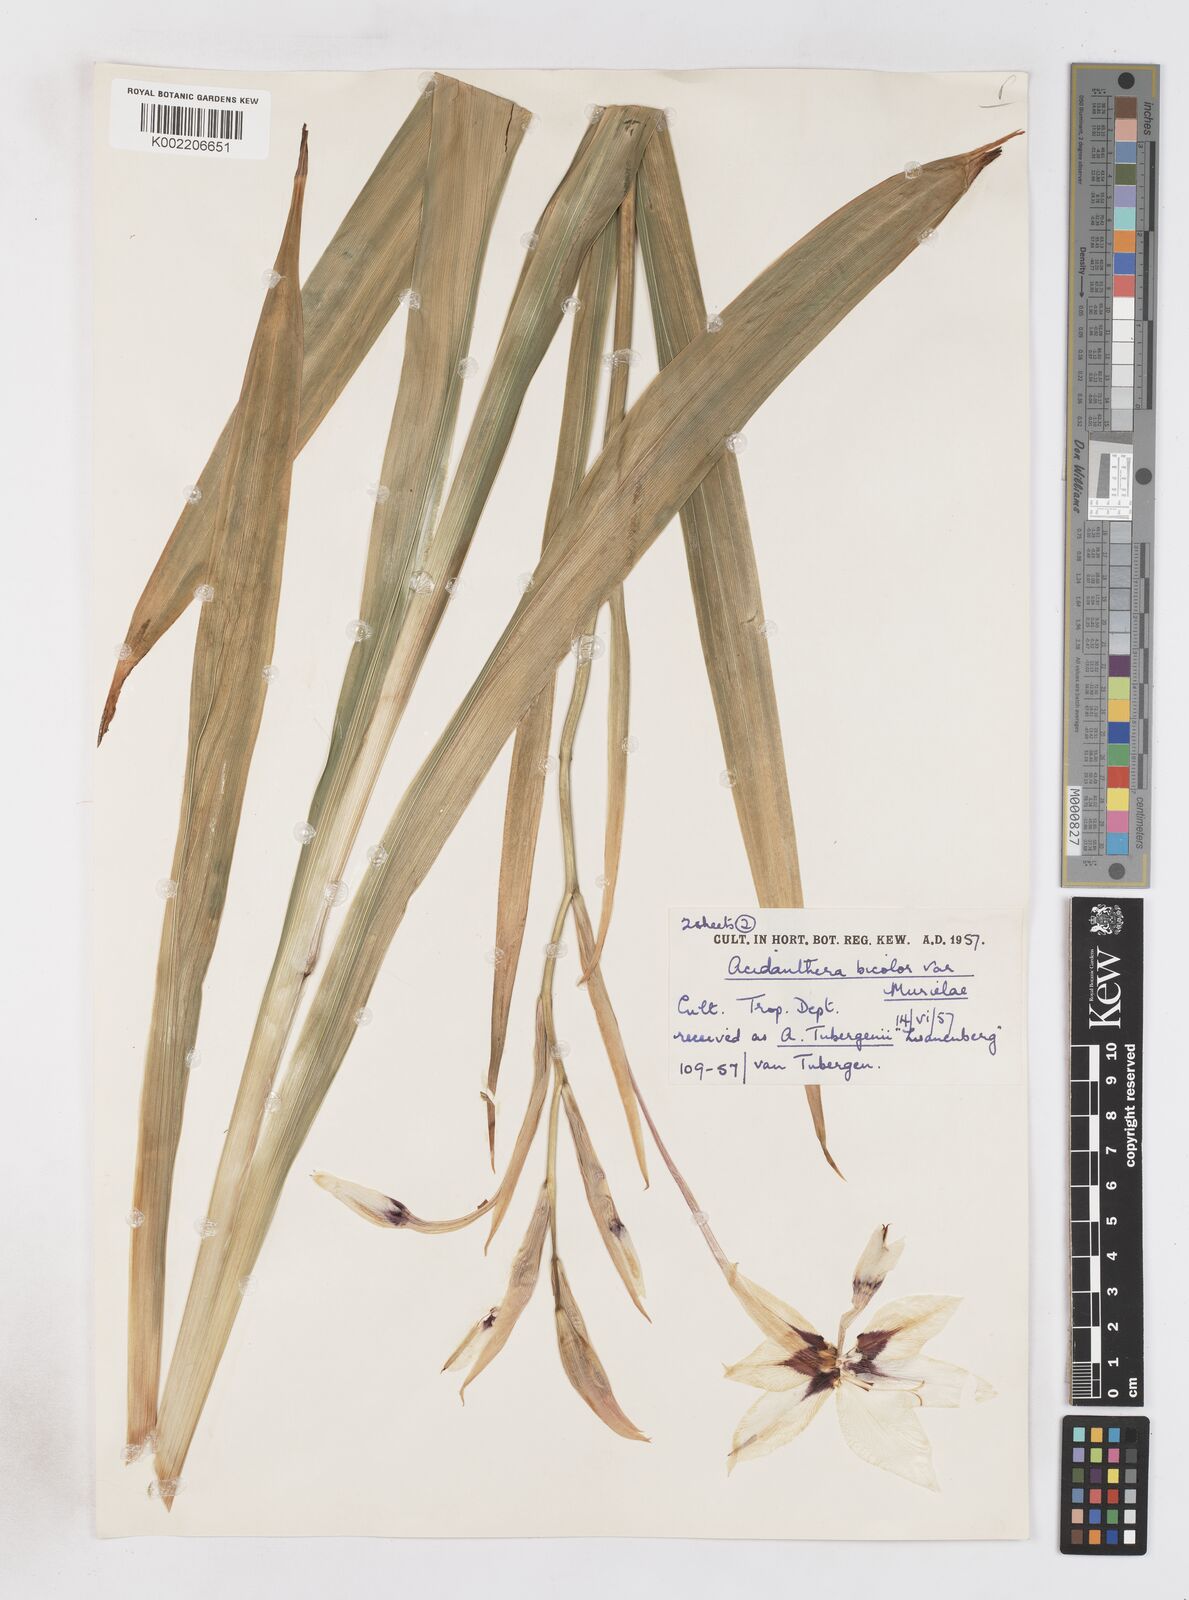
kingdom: Plantae
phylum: Tracheophyta
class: Liliopsida
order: Asparagales
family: Iridaceae
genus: Gladiolus
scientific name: Gladiolus murielae
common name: Acidanthera
